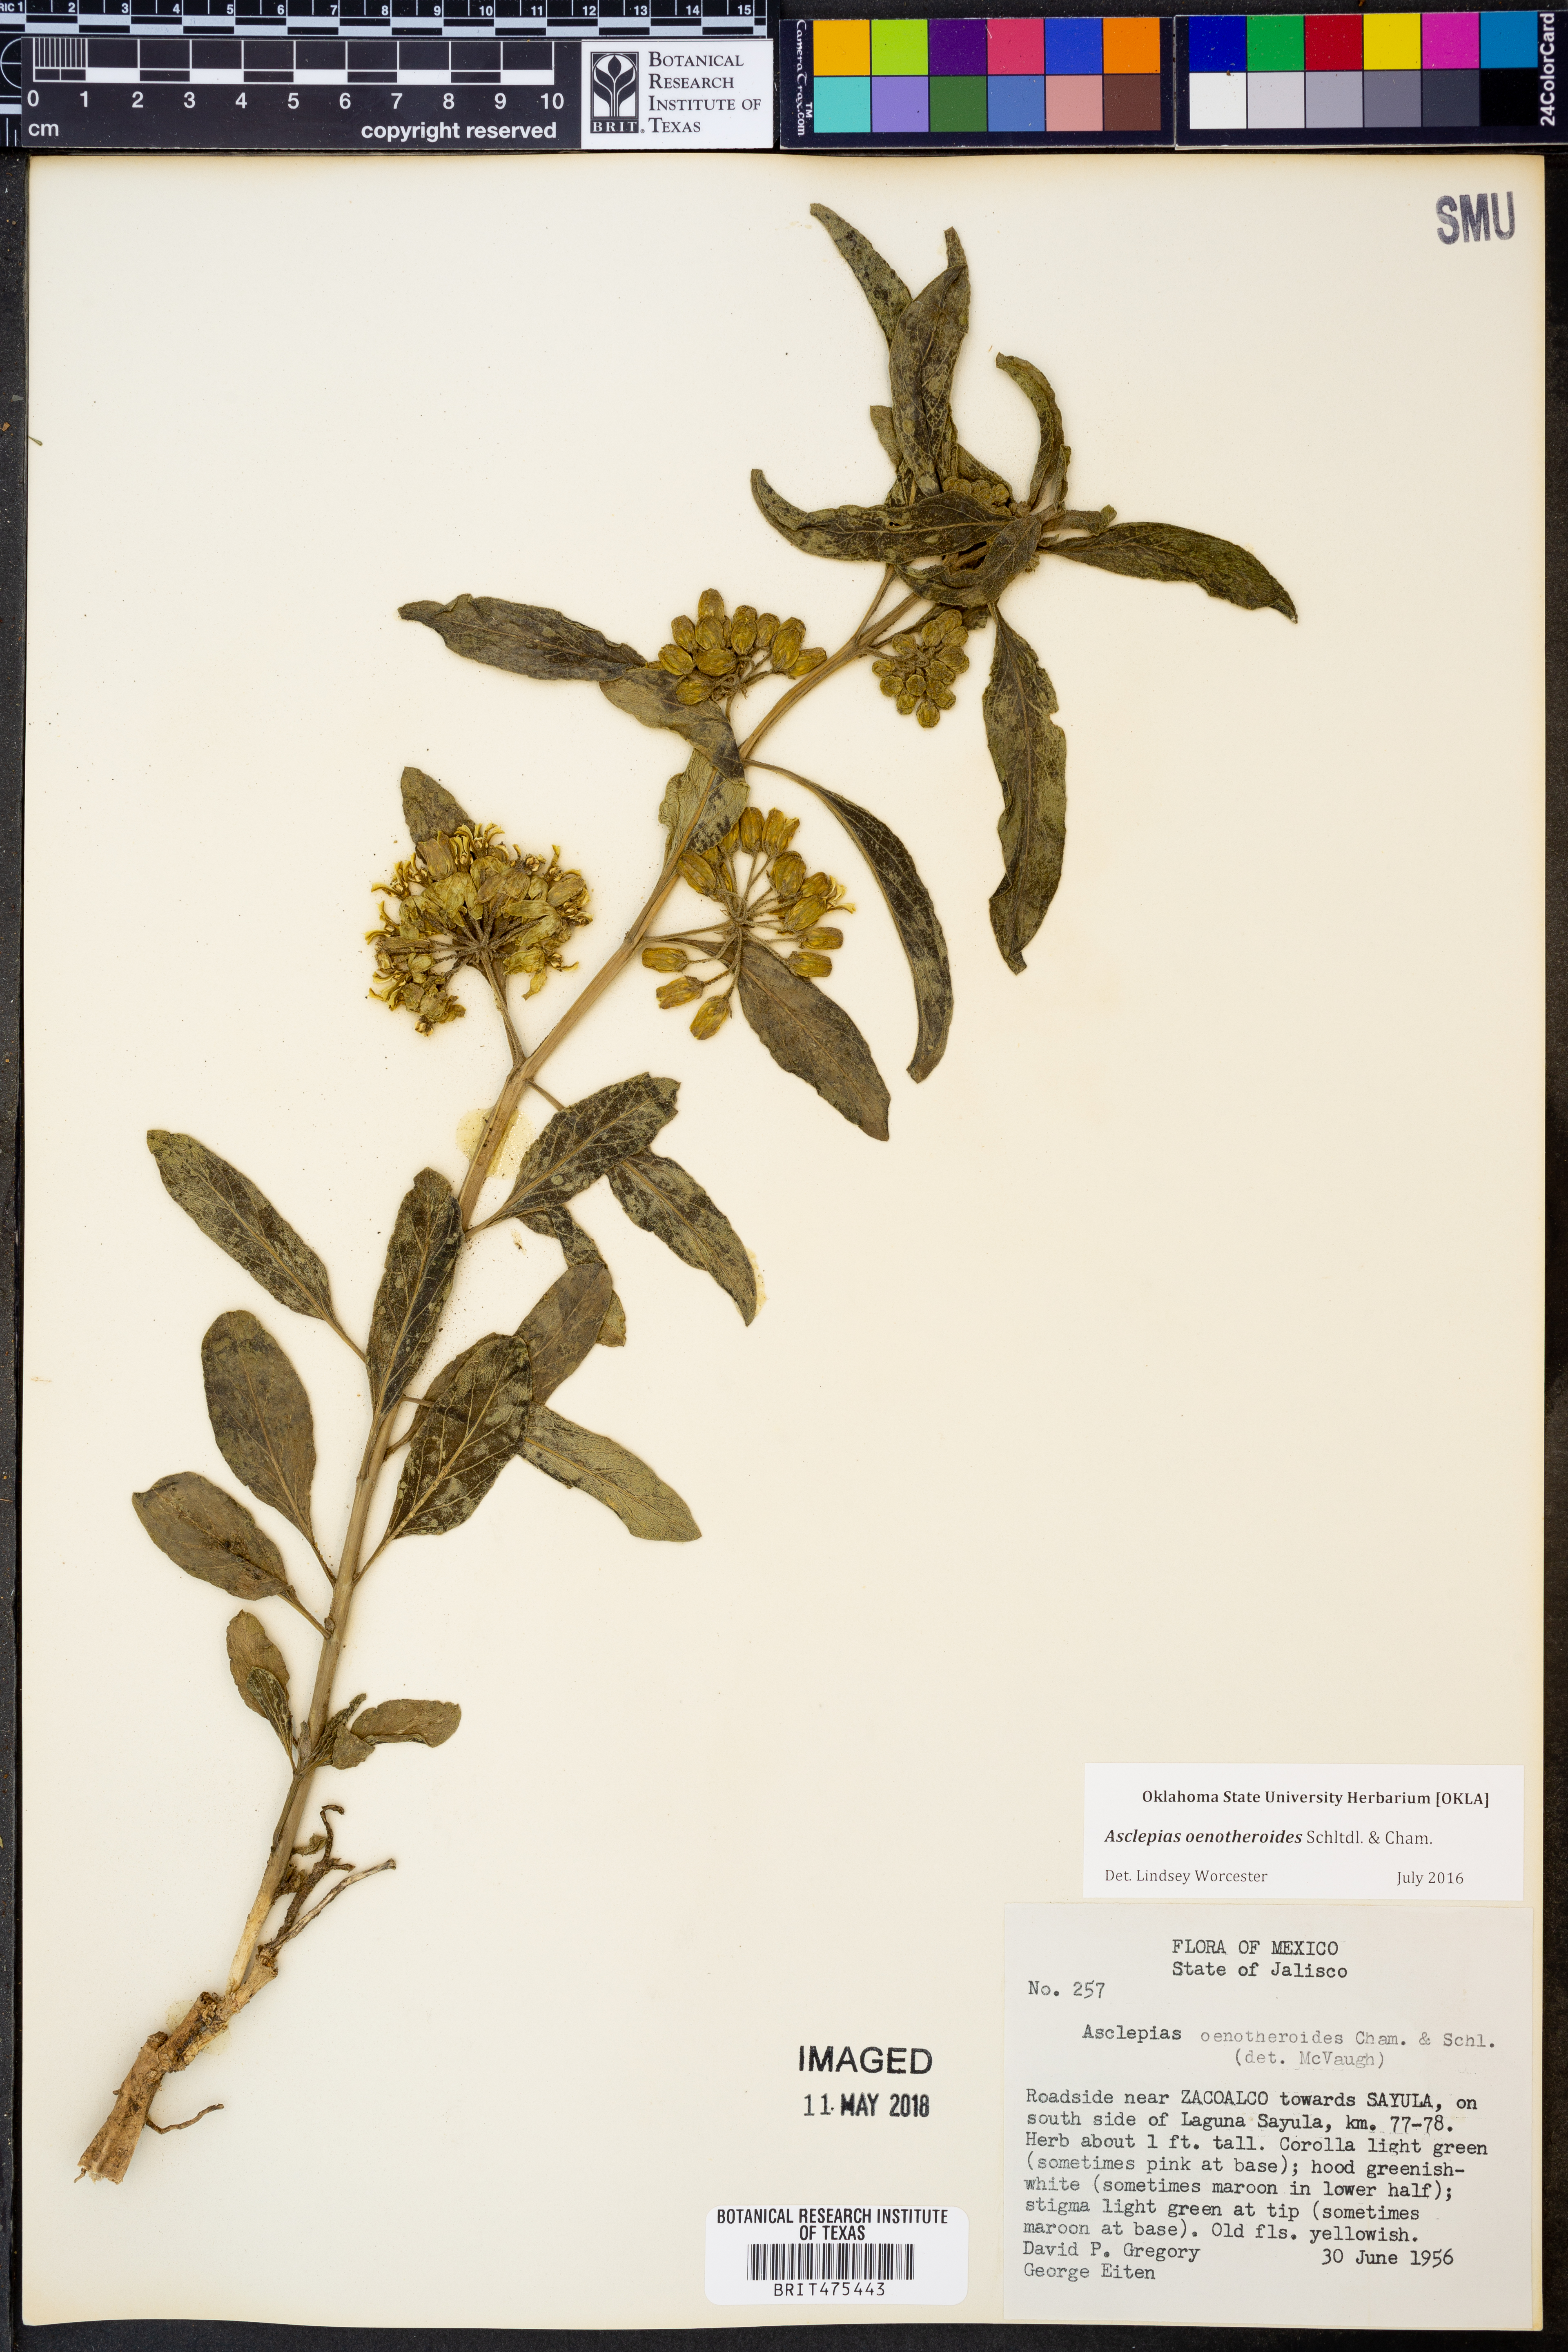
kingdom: Plantae
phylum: Tracheophyta
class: Magnoliopsida
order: Gentianales
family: Apocynaceae
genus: Asclepias
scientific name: Asclepias oenotheroides
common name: Zizotes milkweed
